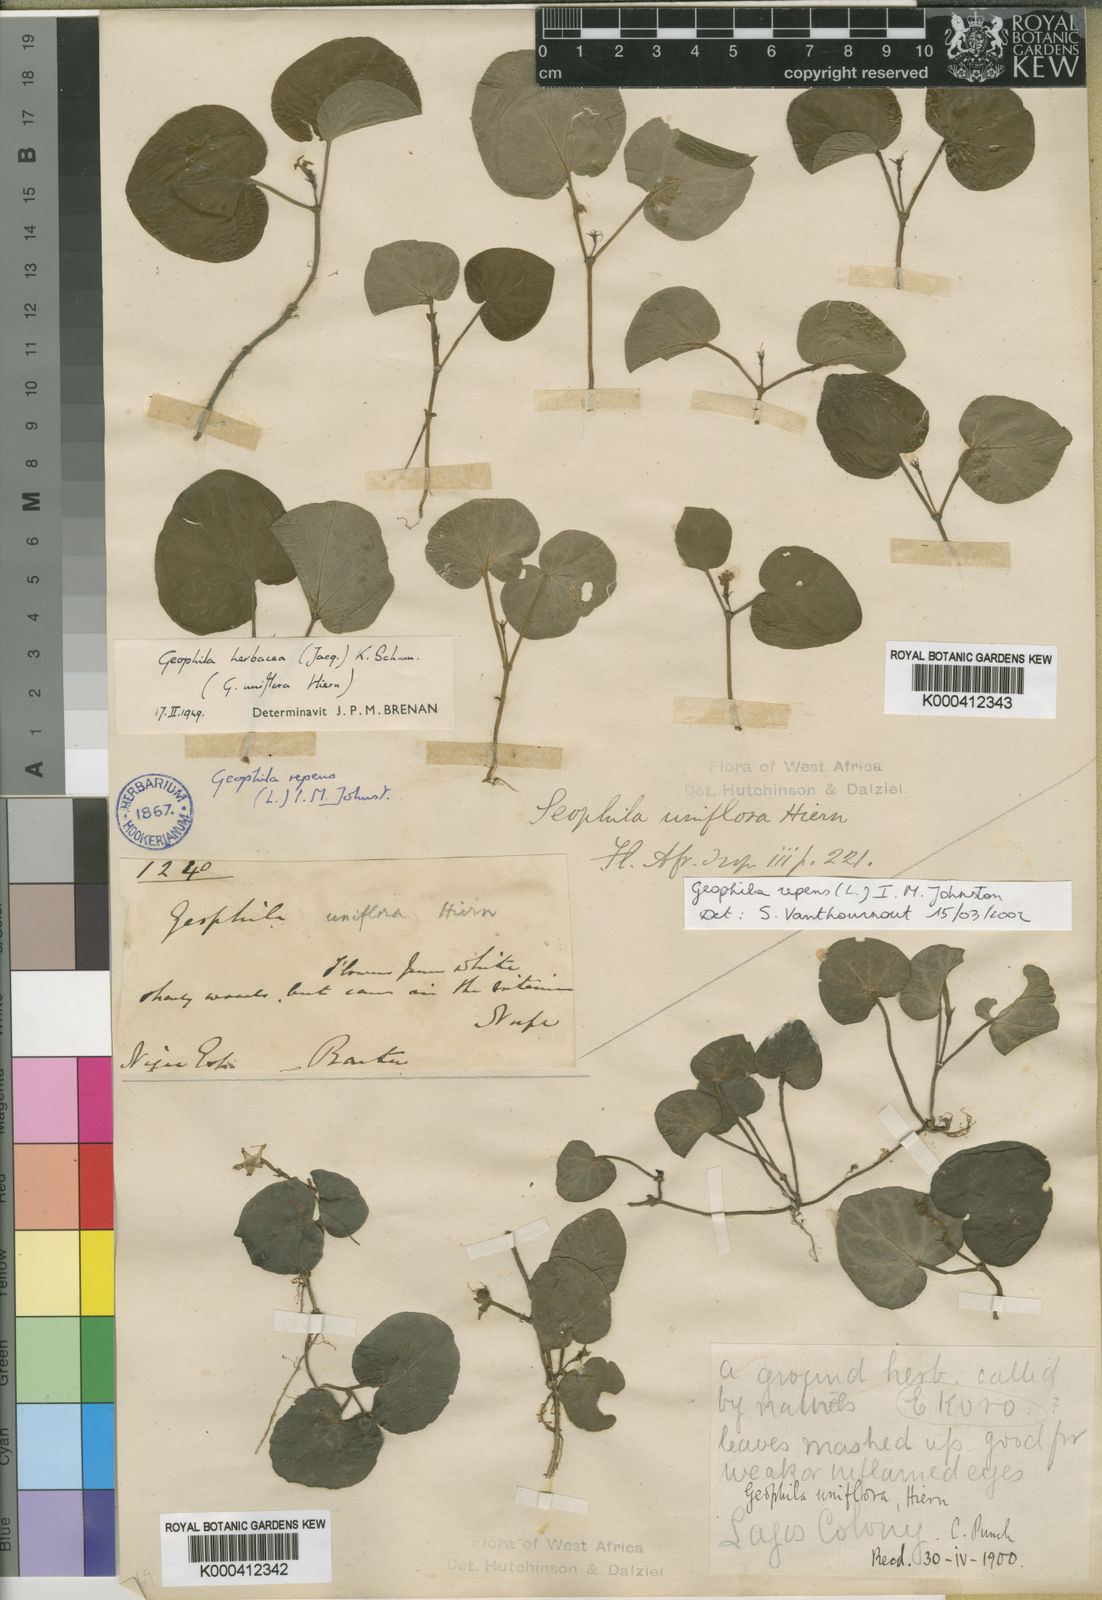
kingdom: Plantae
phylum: Tracheophyta
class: Magnoliopsida
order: Gentianales
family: Rubiaceae
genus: Geophila
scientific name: Geophila repens
